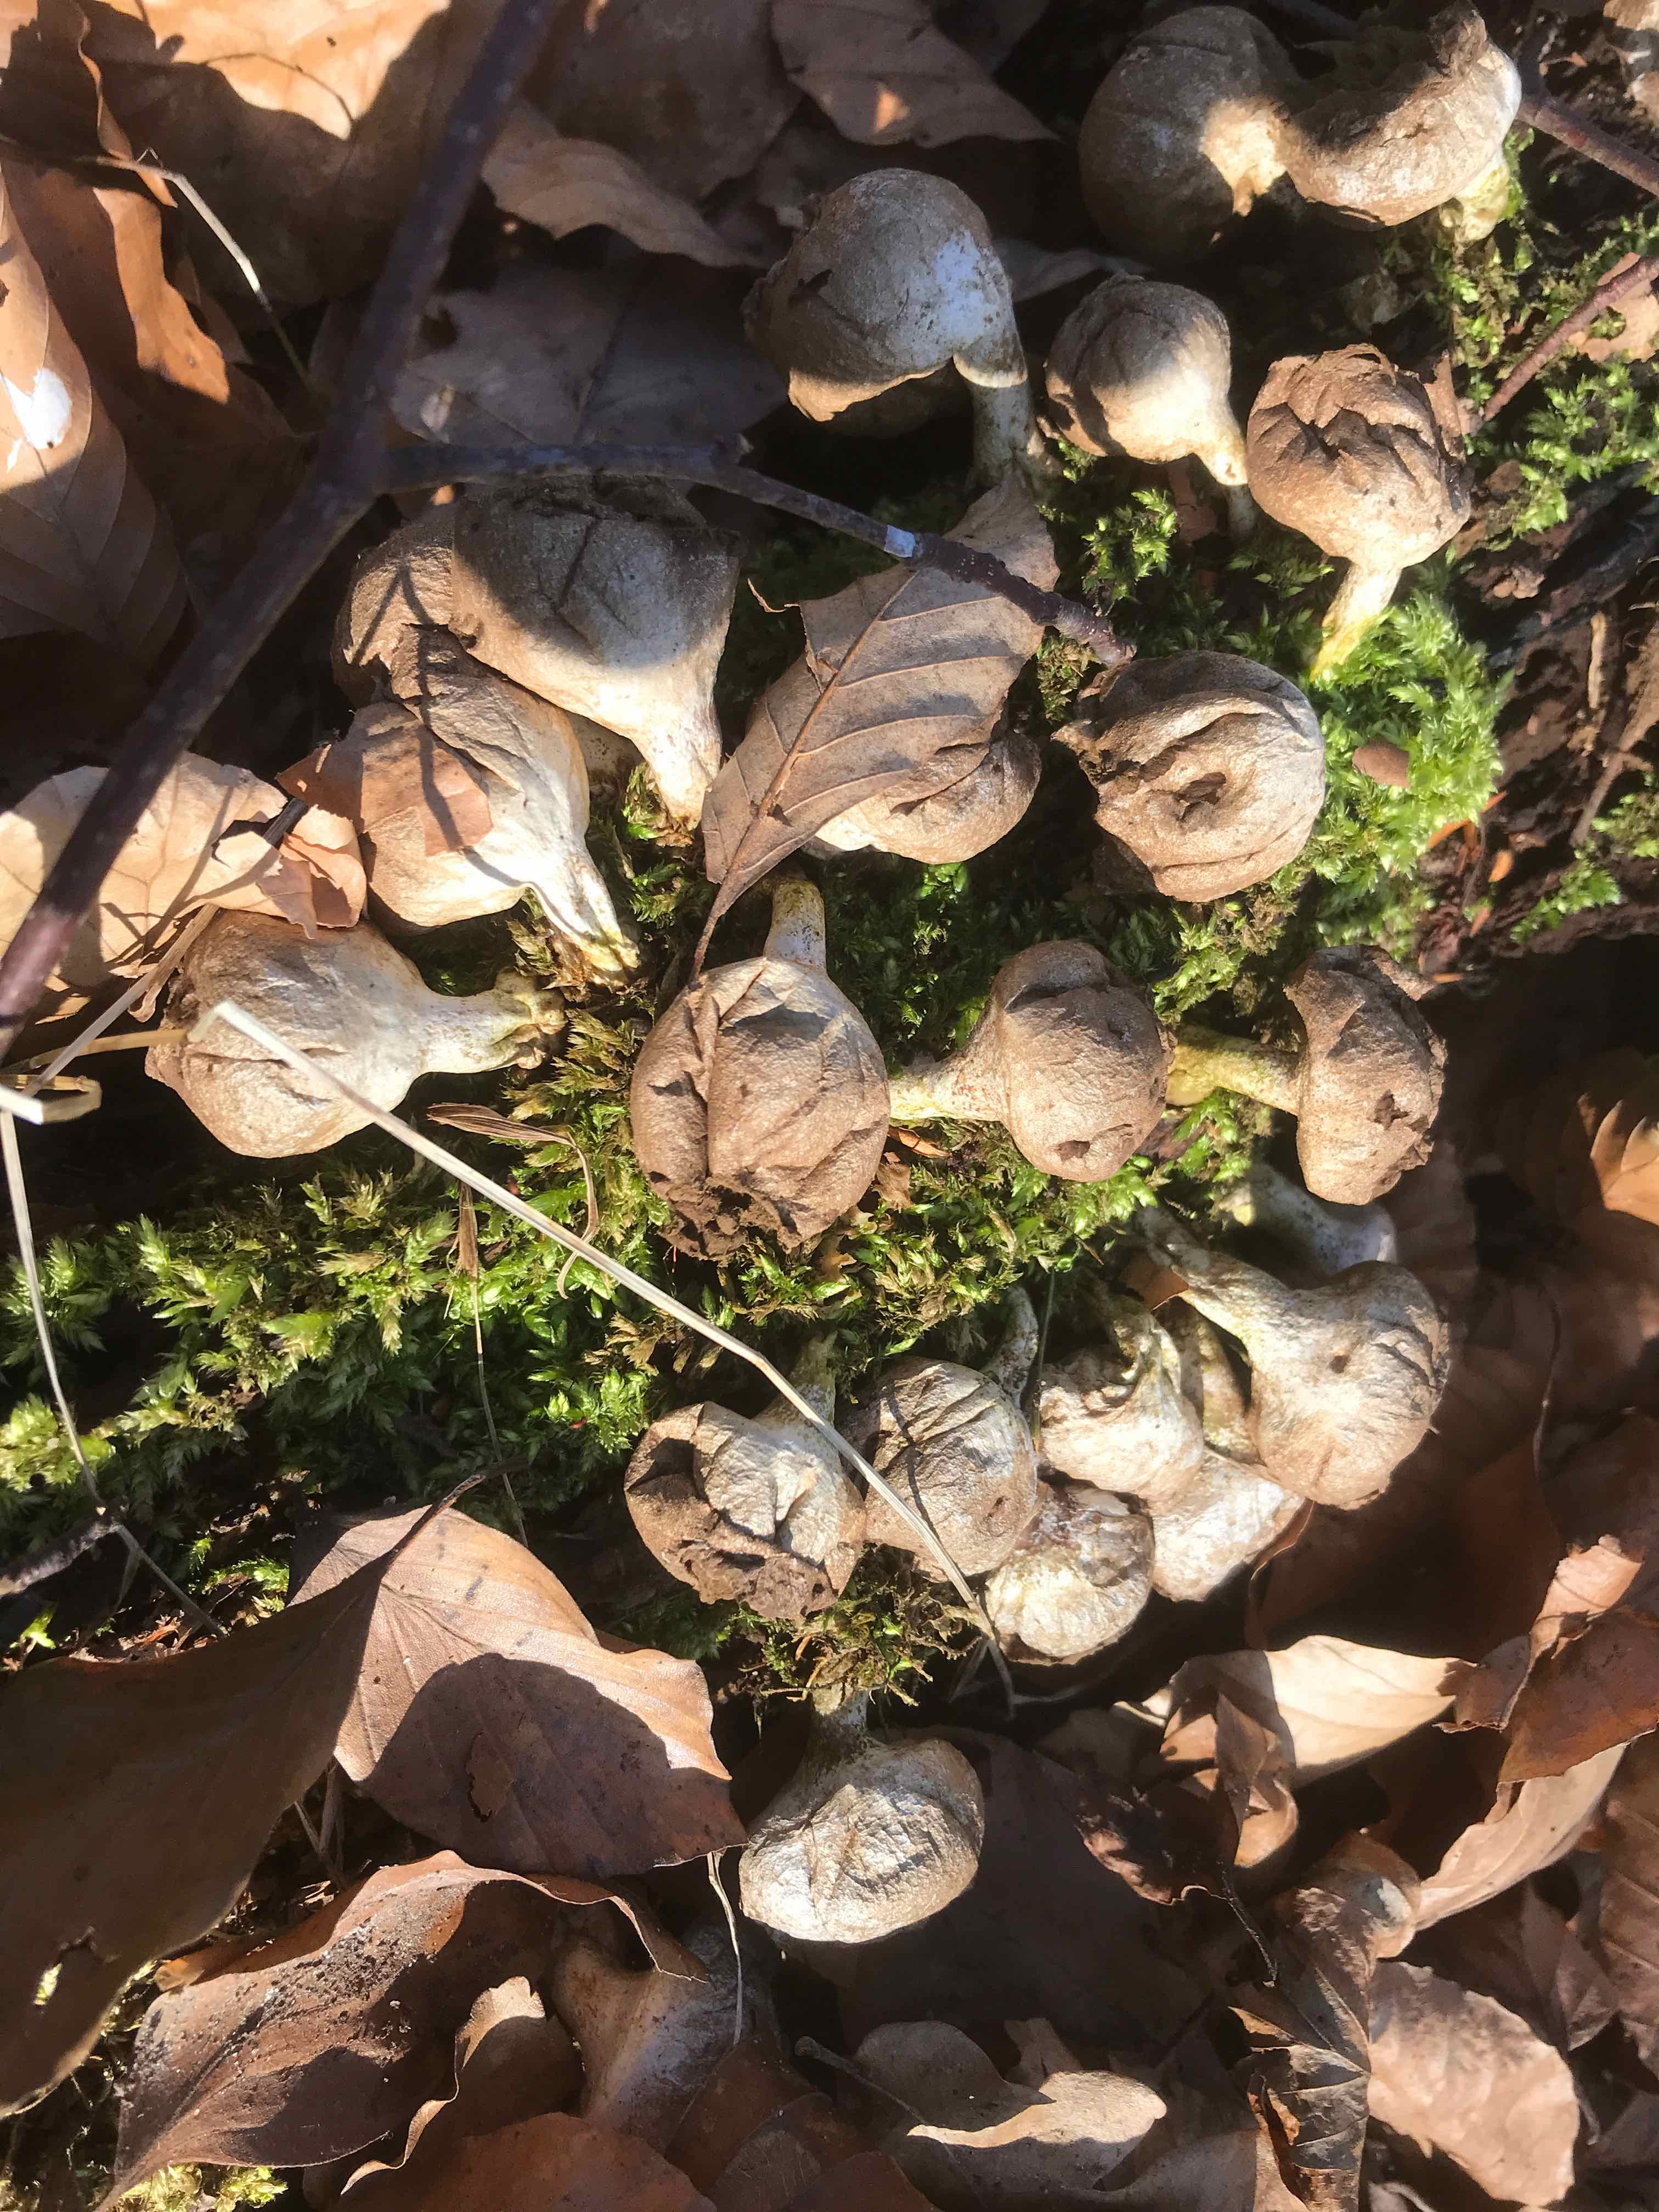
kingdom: Fungi
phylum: Basidiomycota
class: Agaricomycetes
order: Agaricales
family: Lycoperdaceae
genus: Apioperdon
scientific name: Apioperdon pyriforme
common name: pære-støvbold
